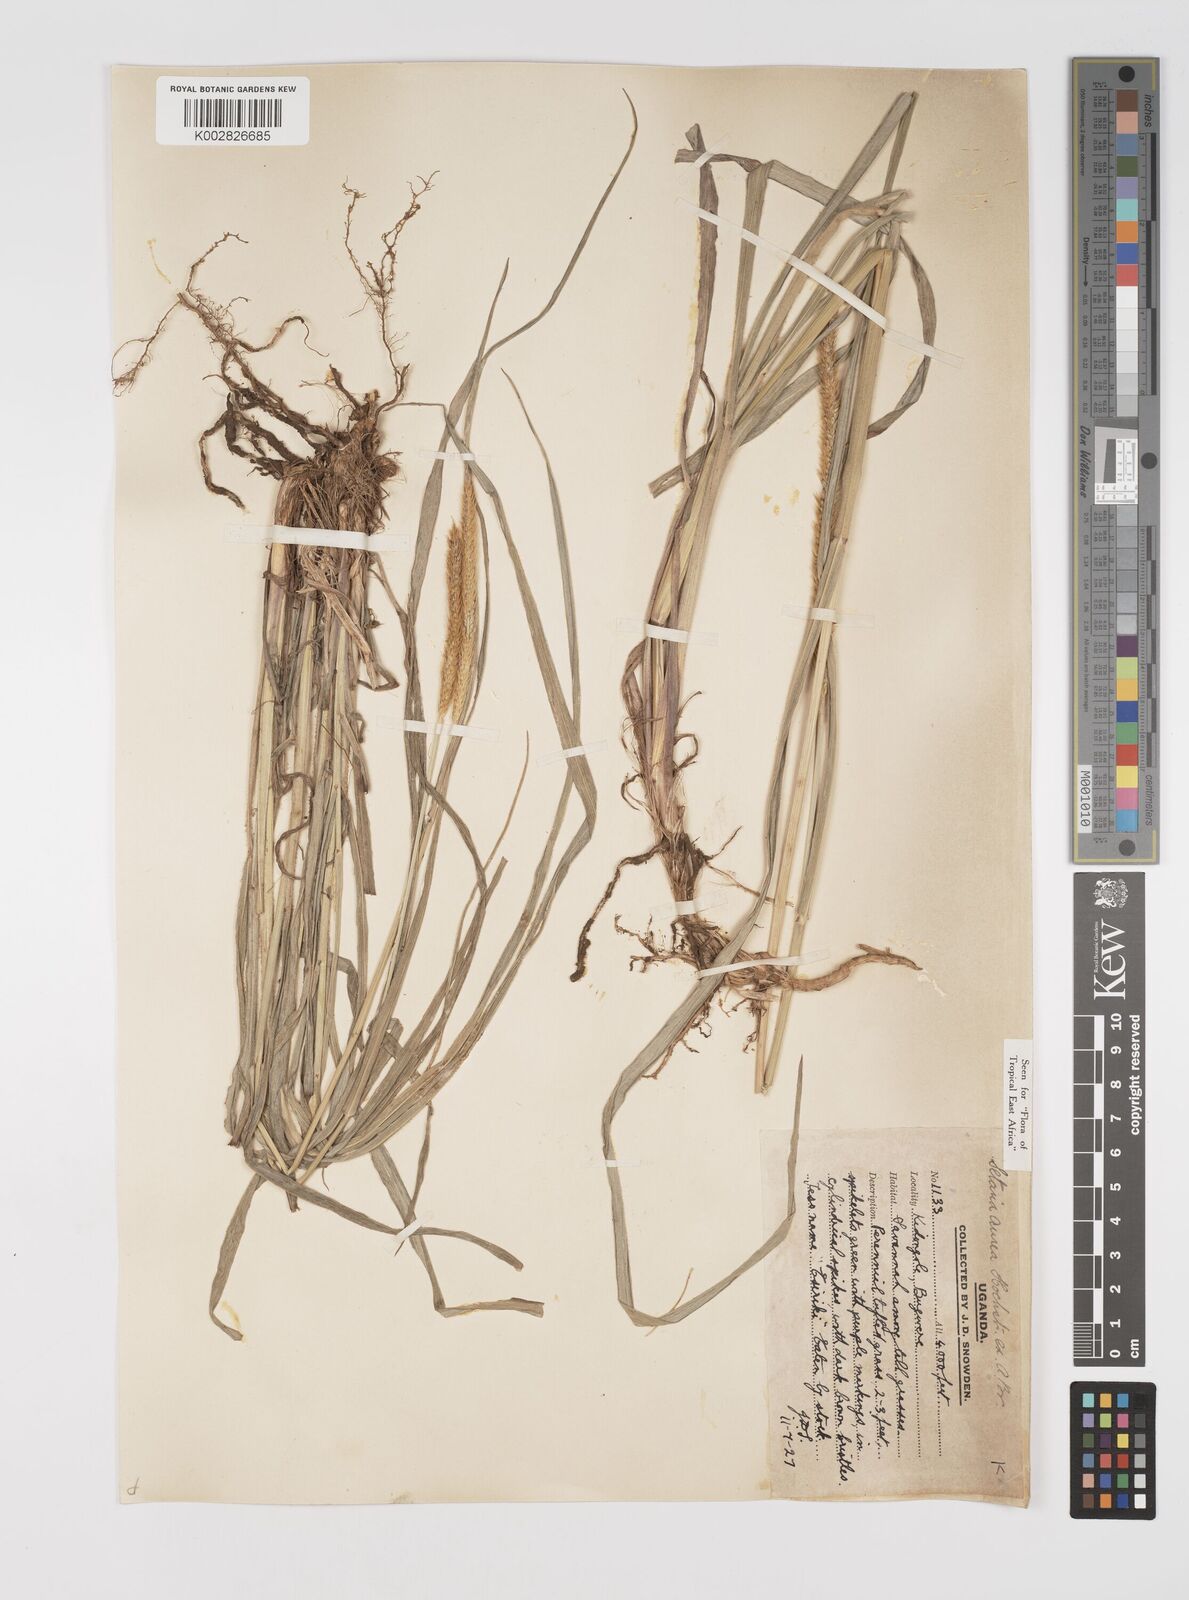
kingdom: Plantae
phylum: Tracheophyta
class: Liliopsida
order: Poales
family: Poaceae
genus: Setaria
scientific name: Setaria sphacelata
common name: African bristlegrass
